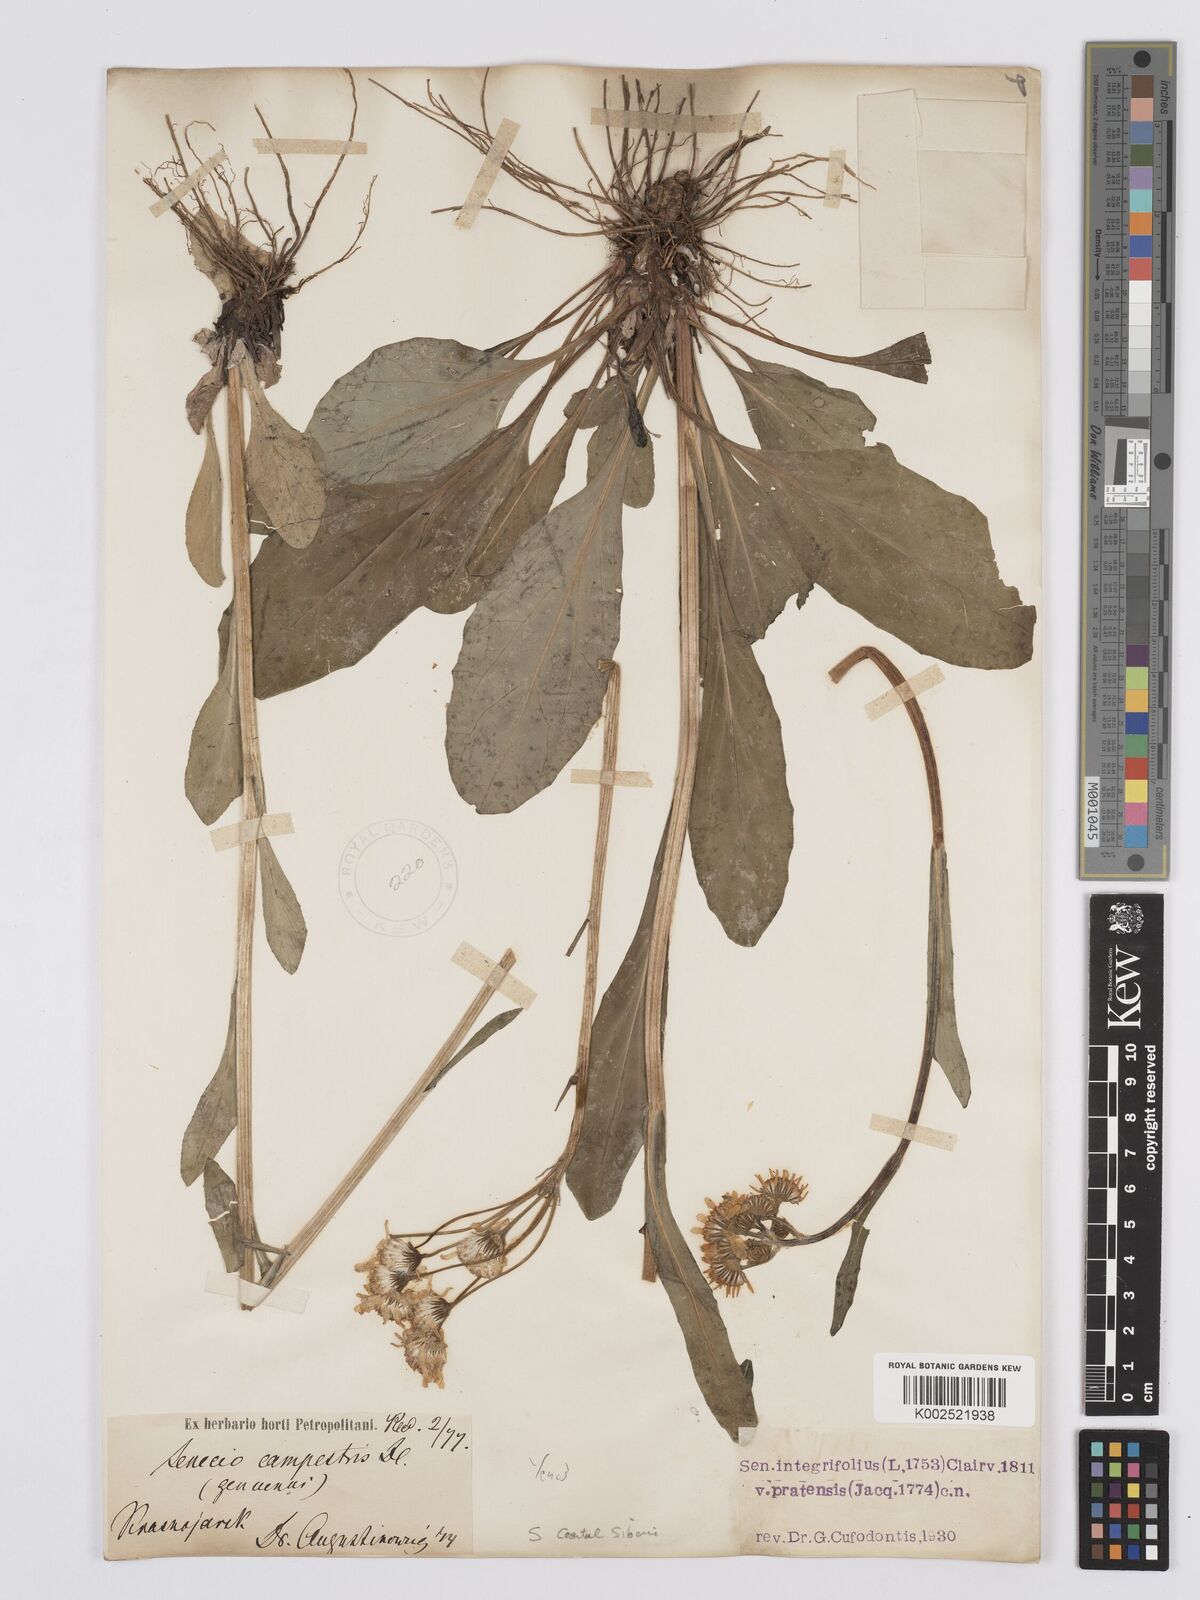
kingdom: Plantae
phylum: Tracheophyta
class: Magnoliopsida
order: Asterales
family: Asteraceae
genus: Tephroseris
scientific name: Tephroseris integrifolia
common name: Field fleawort
